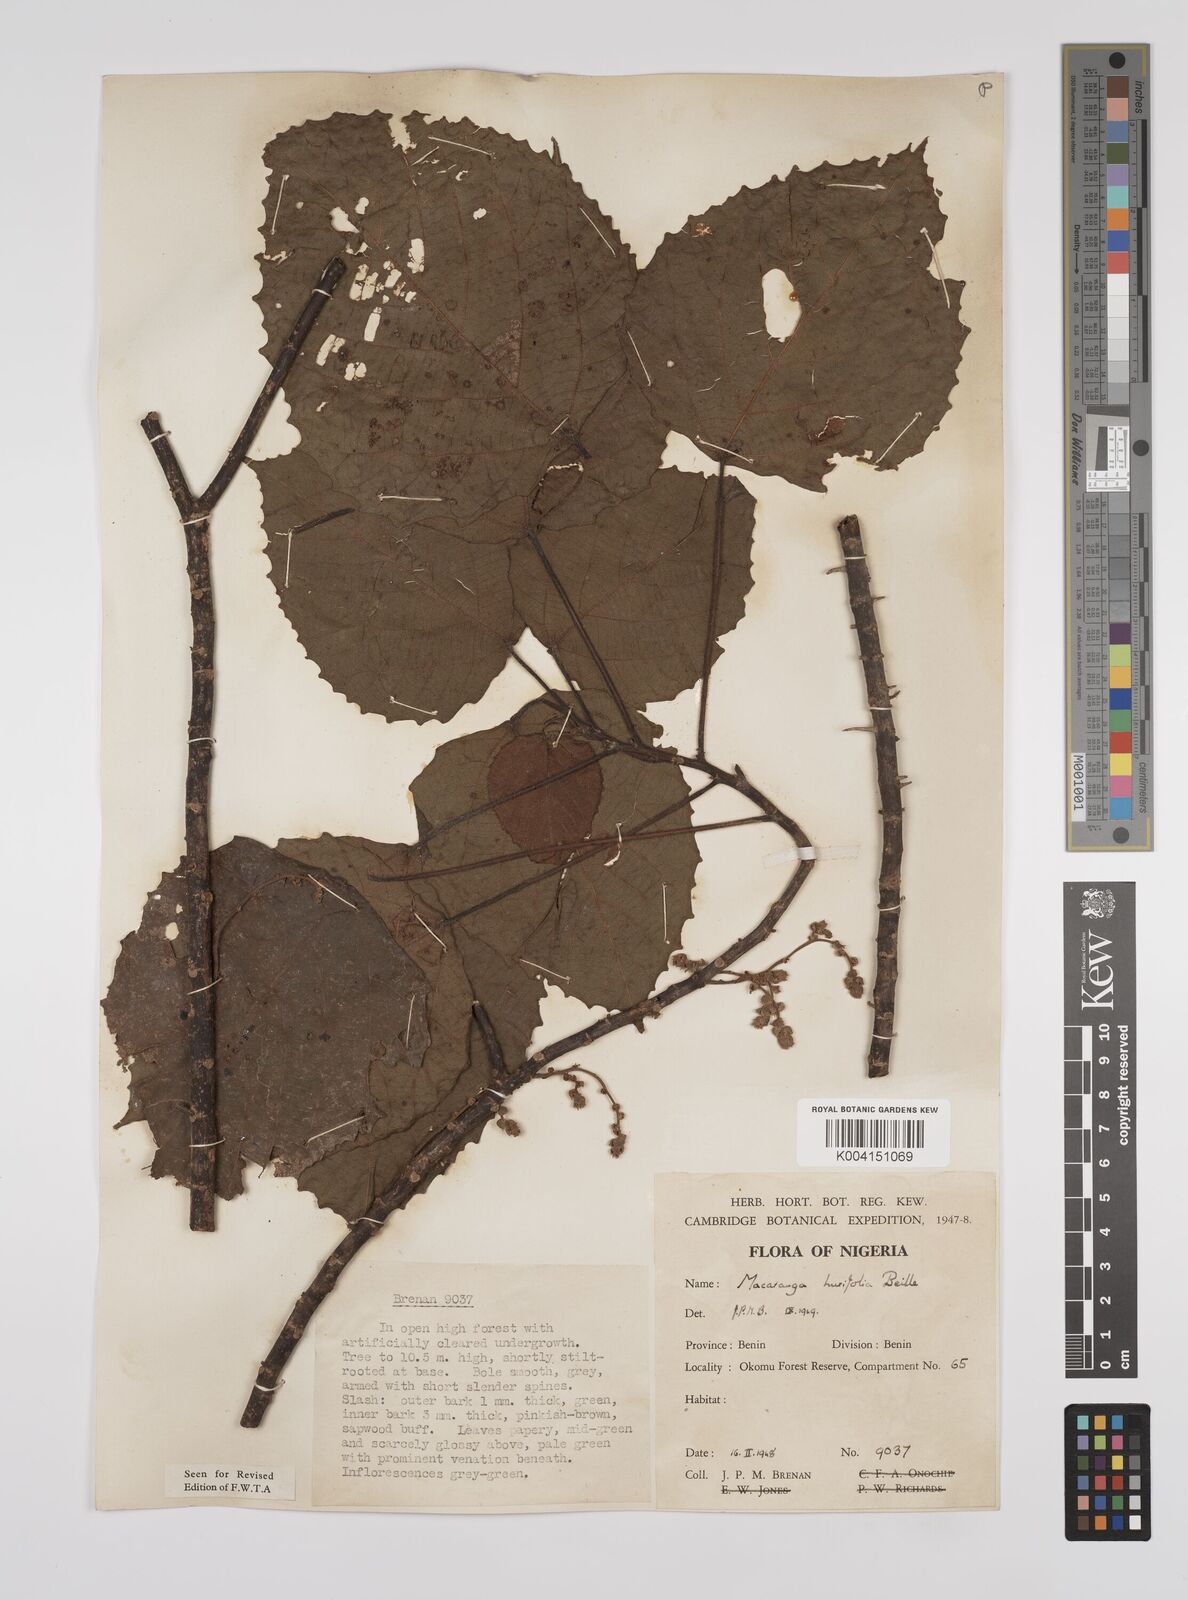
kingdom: Plantae
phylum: Tracheophyta
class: Magnoliopsida
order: Malpighiales
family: Euphorbiaceae
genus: Macaranga
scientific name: Macaranga hurifolia
